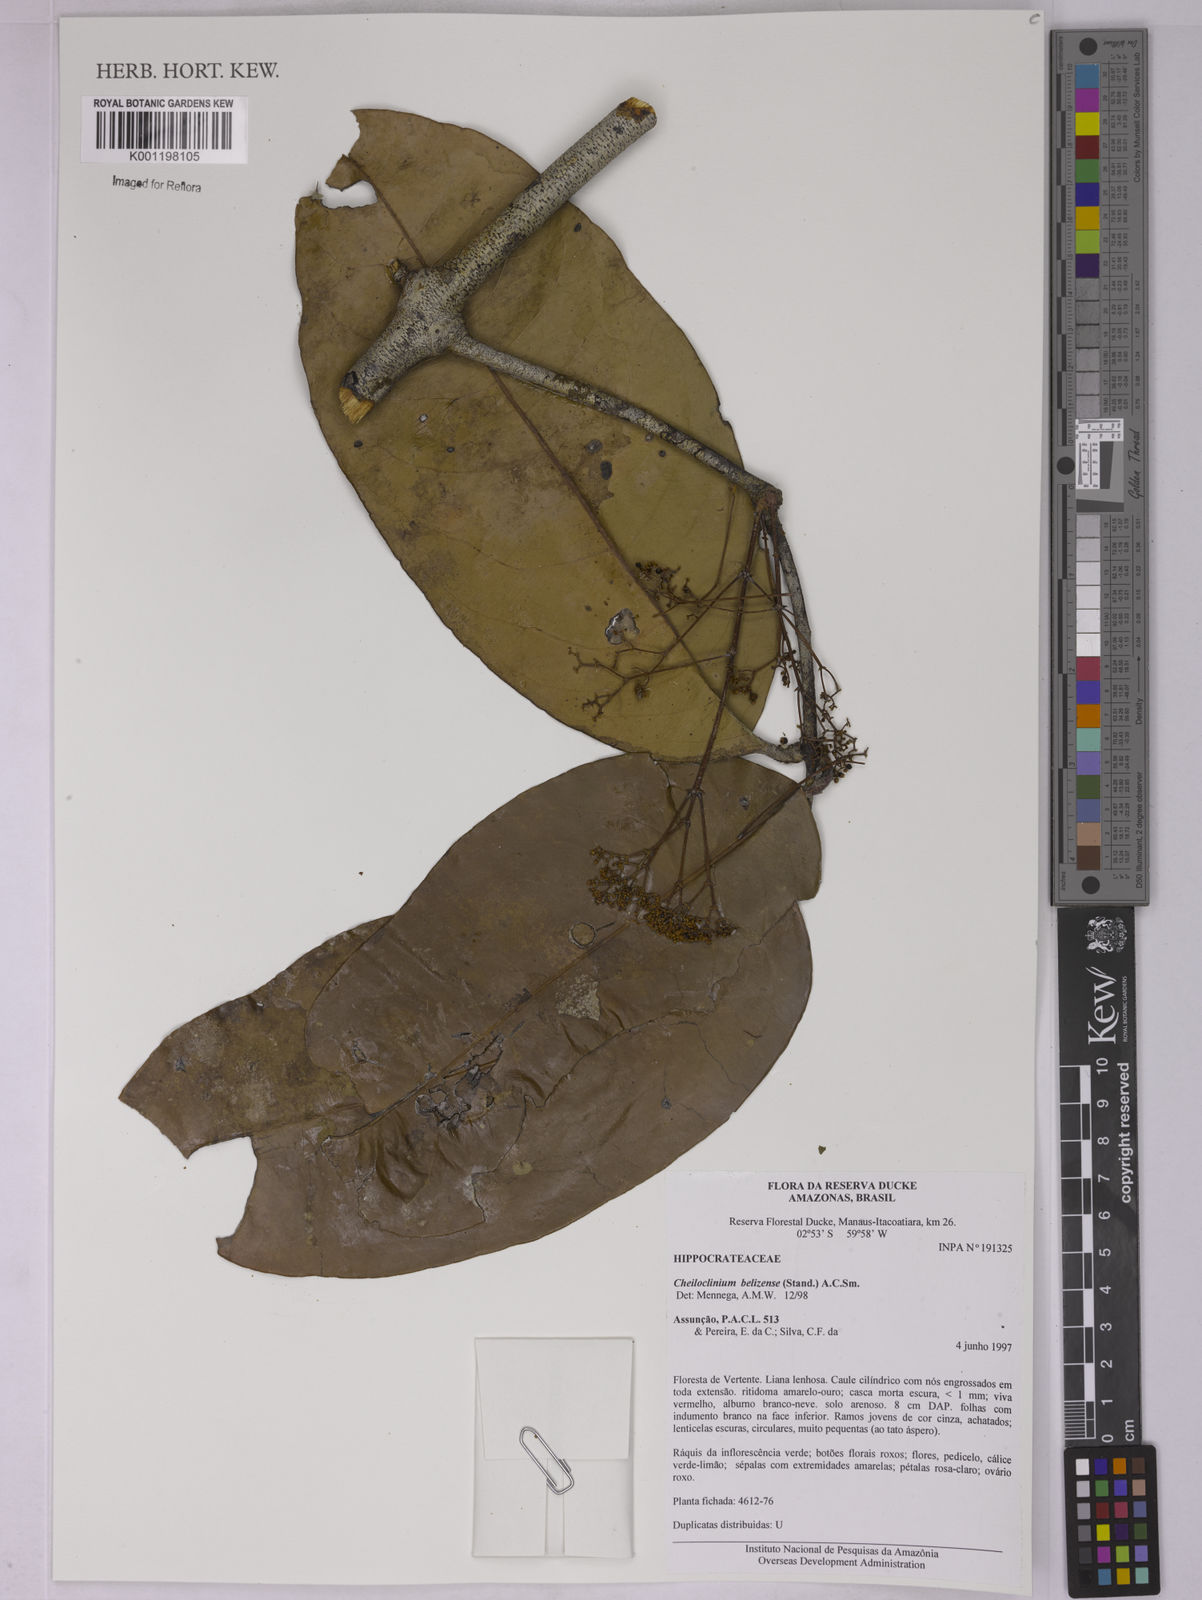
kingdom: Plantae
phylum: Tracheophyta
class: Magnoliopsida
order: Celastrales
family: Celastraceae
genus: Cheiloclinium
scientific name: Cheiloclinium belizense
